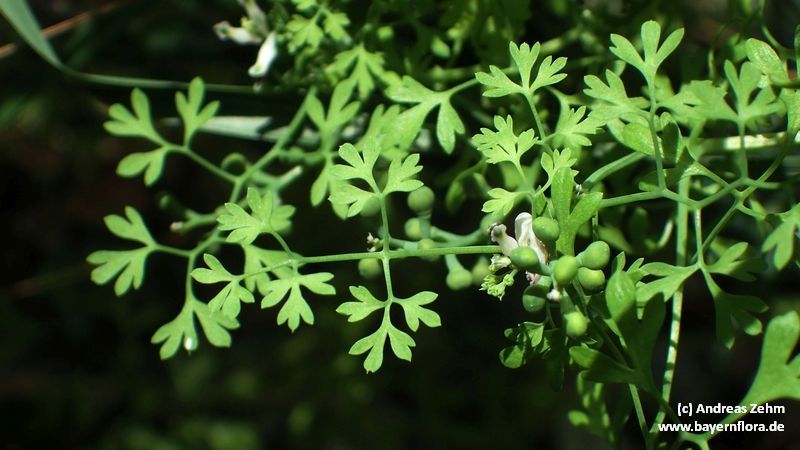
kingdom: Plantae
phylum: Tracheophyta
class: Magnoliopsida
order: Ranunculales
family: Papaveraceae
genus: Fumaria
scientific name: Fumaria capreolata
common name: White ramping-fumitory
